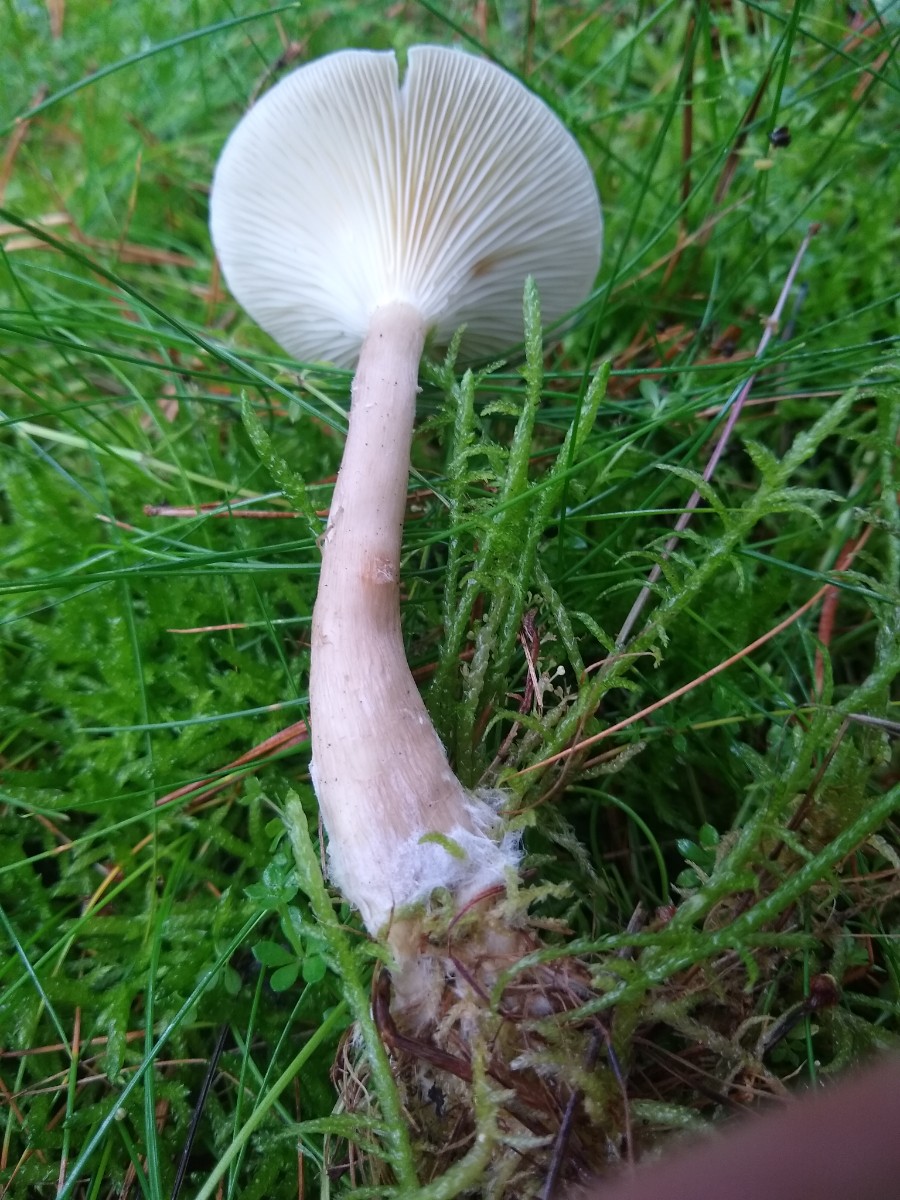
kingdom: Fungi
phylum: Basidiomycota
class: Agaricomycetes
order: Agaricales
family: Hygrophoraceae
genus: Ampulloclitocybe
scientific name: Ampulloclitocybe clavipes
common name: køllefod
